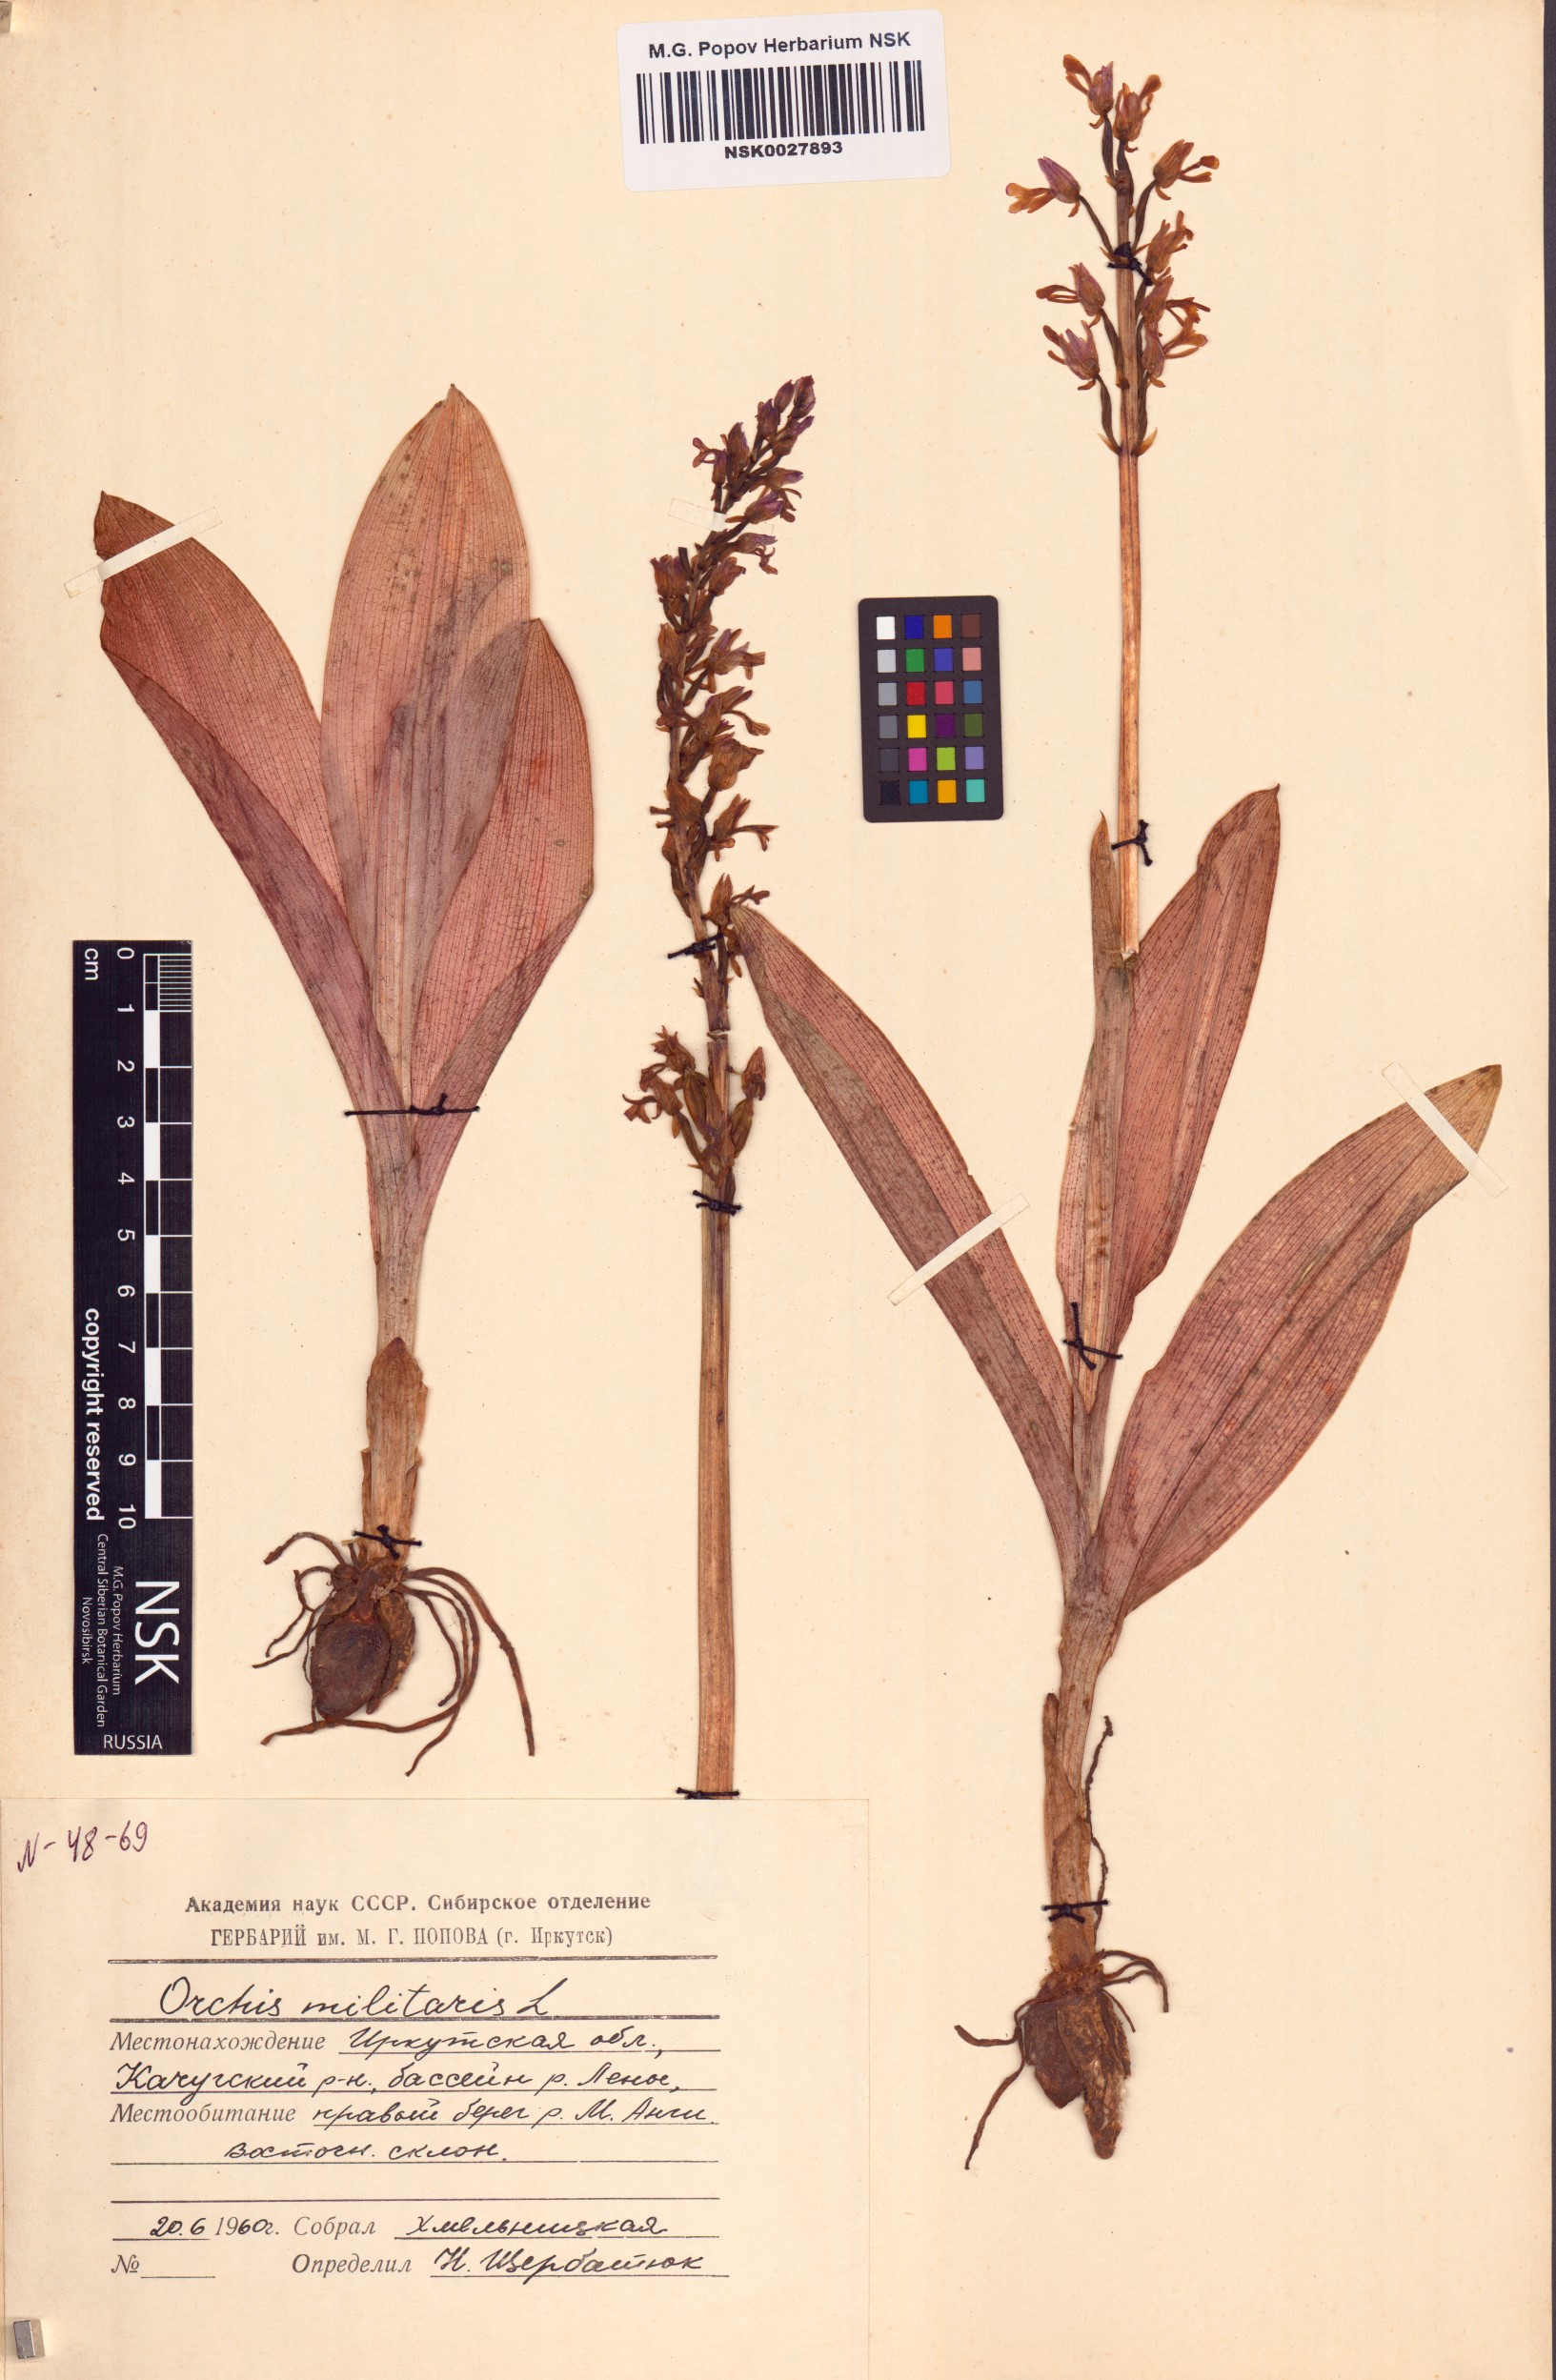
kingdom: Plantae
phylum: Tracheophyta
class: Liliopsida
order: Asparagales
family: Orchidaceae
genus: Orchis
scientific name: Orchis militaris
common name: Military orchid
